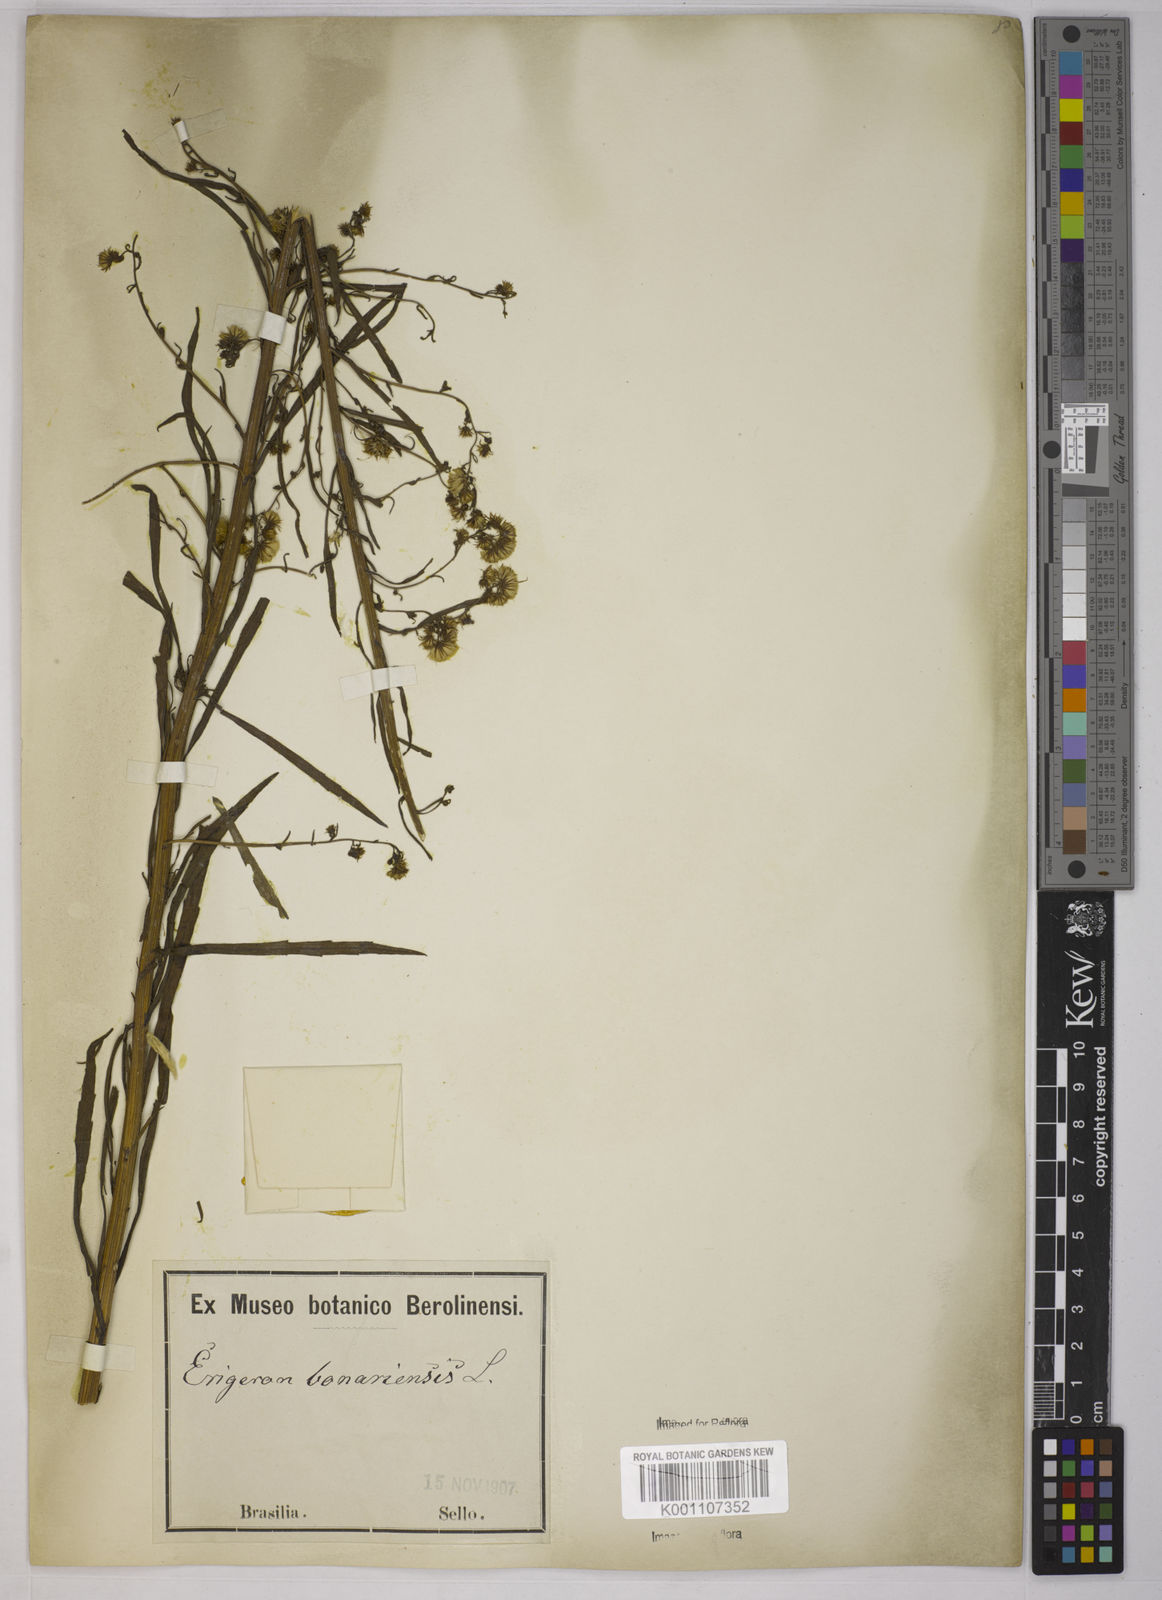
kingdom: Plantae
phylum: Tracheophyta
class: Magnoliopsida
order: Asterales
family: Asteraceae
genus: Erigeron
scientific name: Erigeron canadensis
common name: Canadian fleabane
